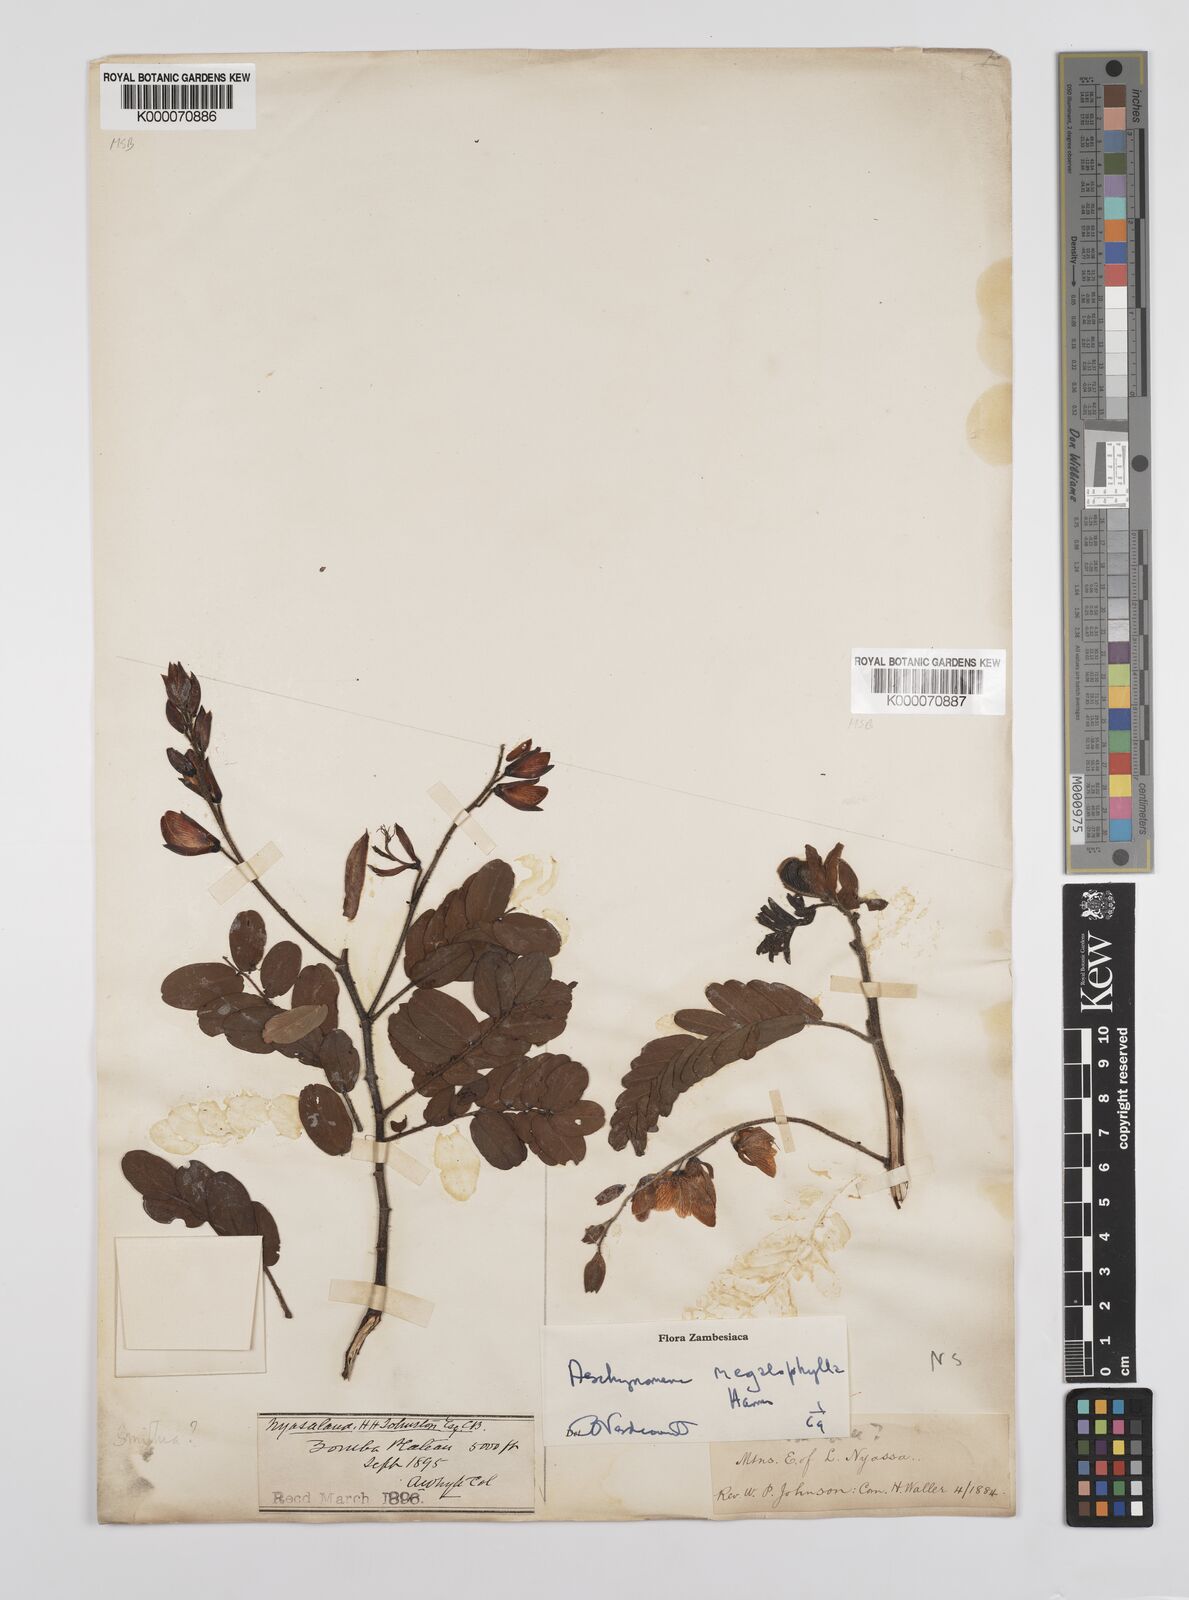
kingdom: Plantae
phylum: Tracheophyta
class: Magnoliopsida
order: Fabales
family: Fabaceae
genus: Aeschynomene
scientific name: Aeschynomene megalophylla
